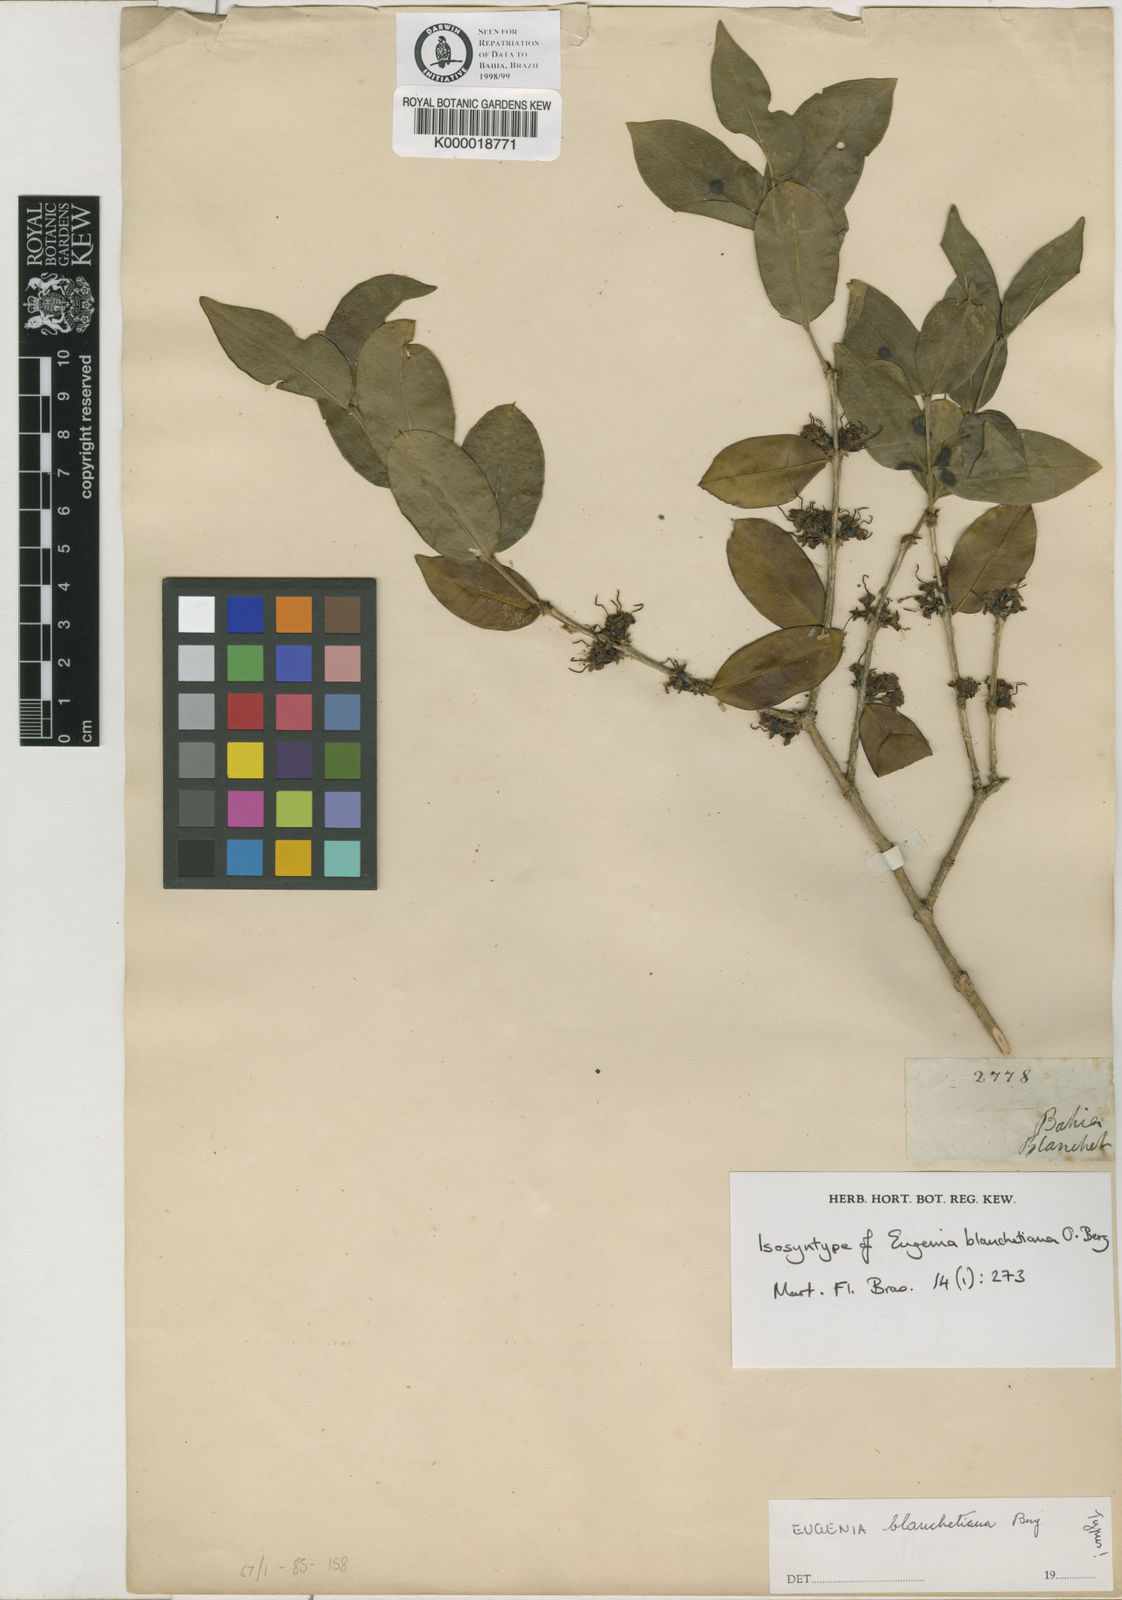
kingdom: Plantae
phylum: Tracheophyta
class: Magnoliopsida
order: Myrtales
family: Myrtaceae
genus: Eugenia
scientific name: Eugenia blanchetiana
